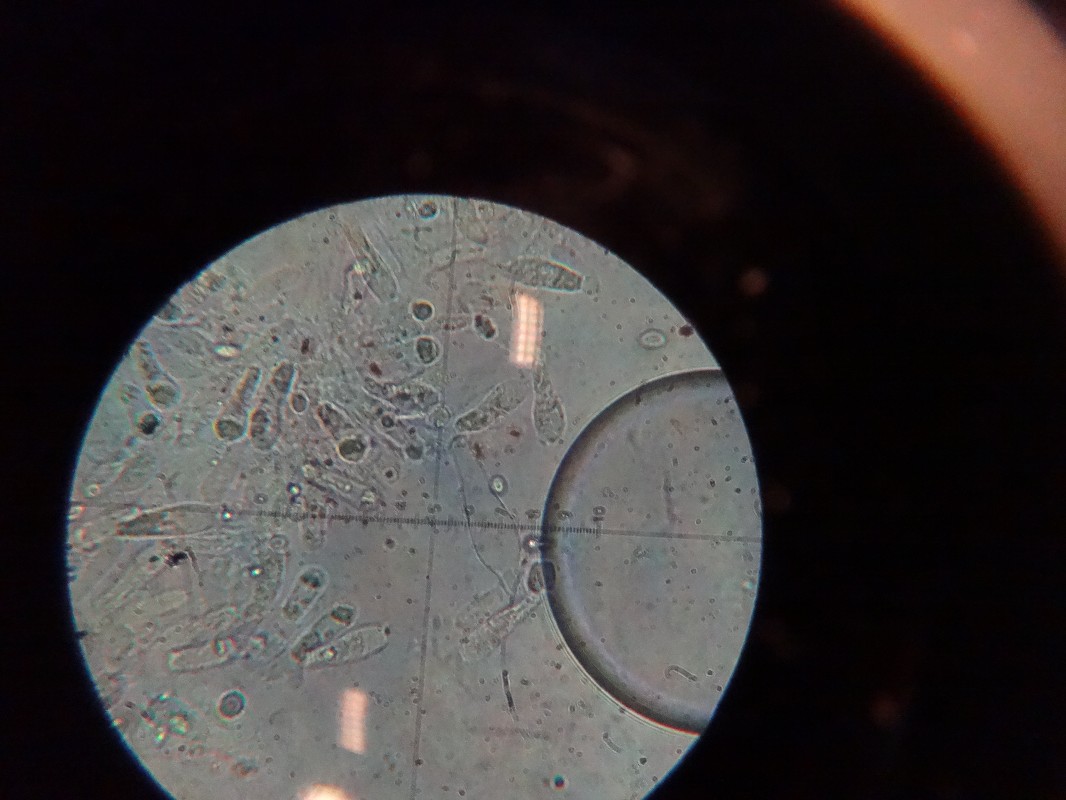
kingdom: Fungi
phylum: Basidiomycota
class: Agaricomycetes
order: Agaricales
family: Tricholomataceae
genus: Melanoleuca
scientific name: Melanoleuca polioleuca
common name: almindelig munkehat
